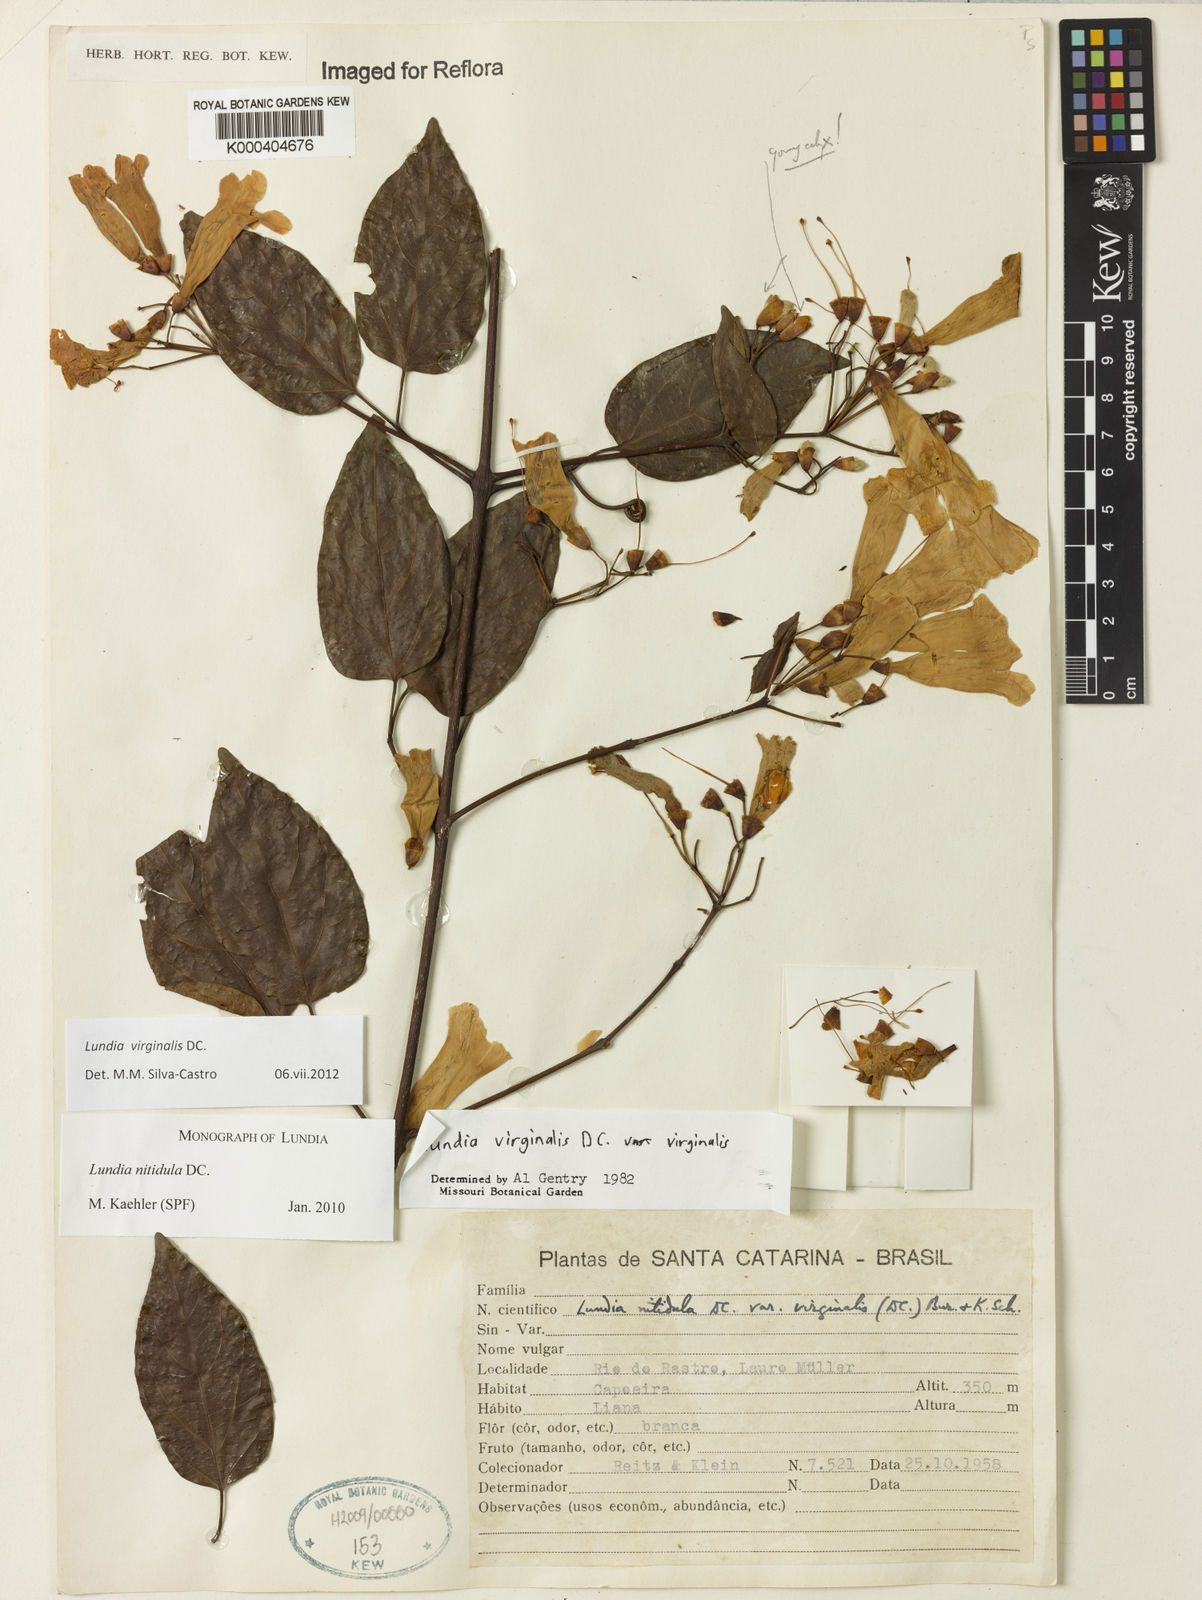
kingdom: Plantae
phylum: Tracheophyta
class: Magnoliopsida
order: Lamiales
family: Bignoniaceae
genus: Lundia
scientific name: Lundia virginalis
